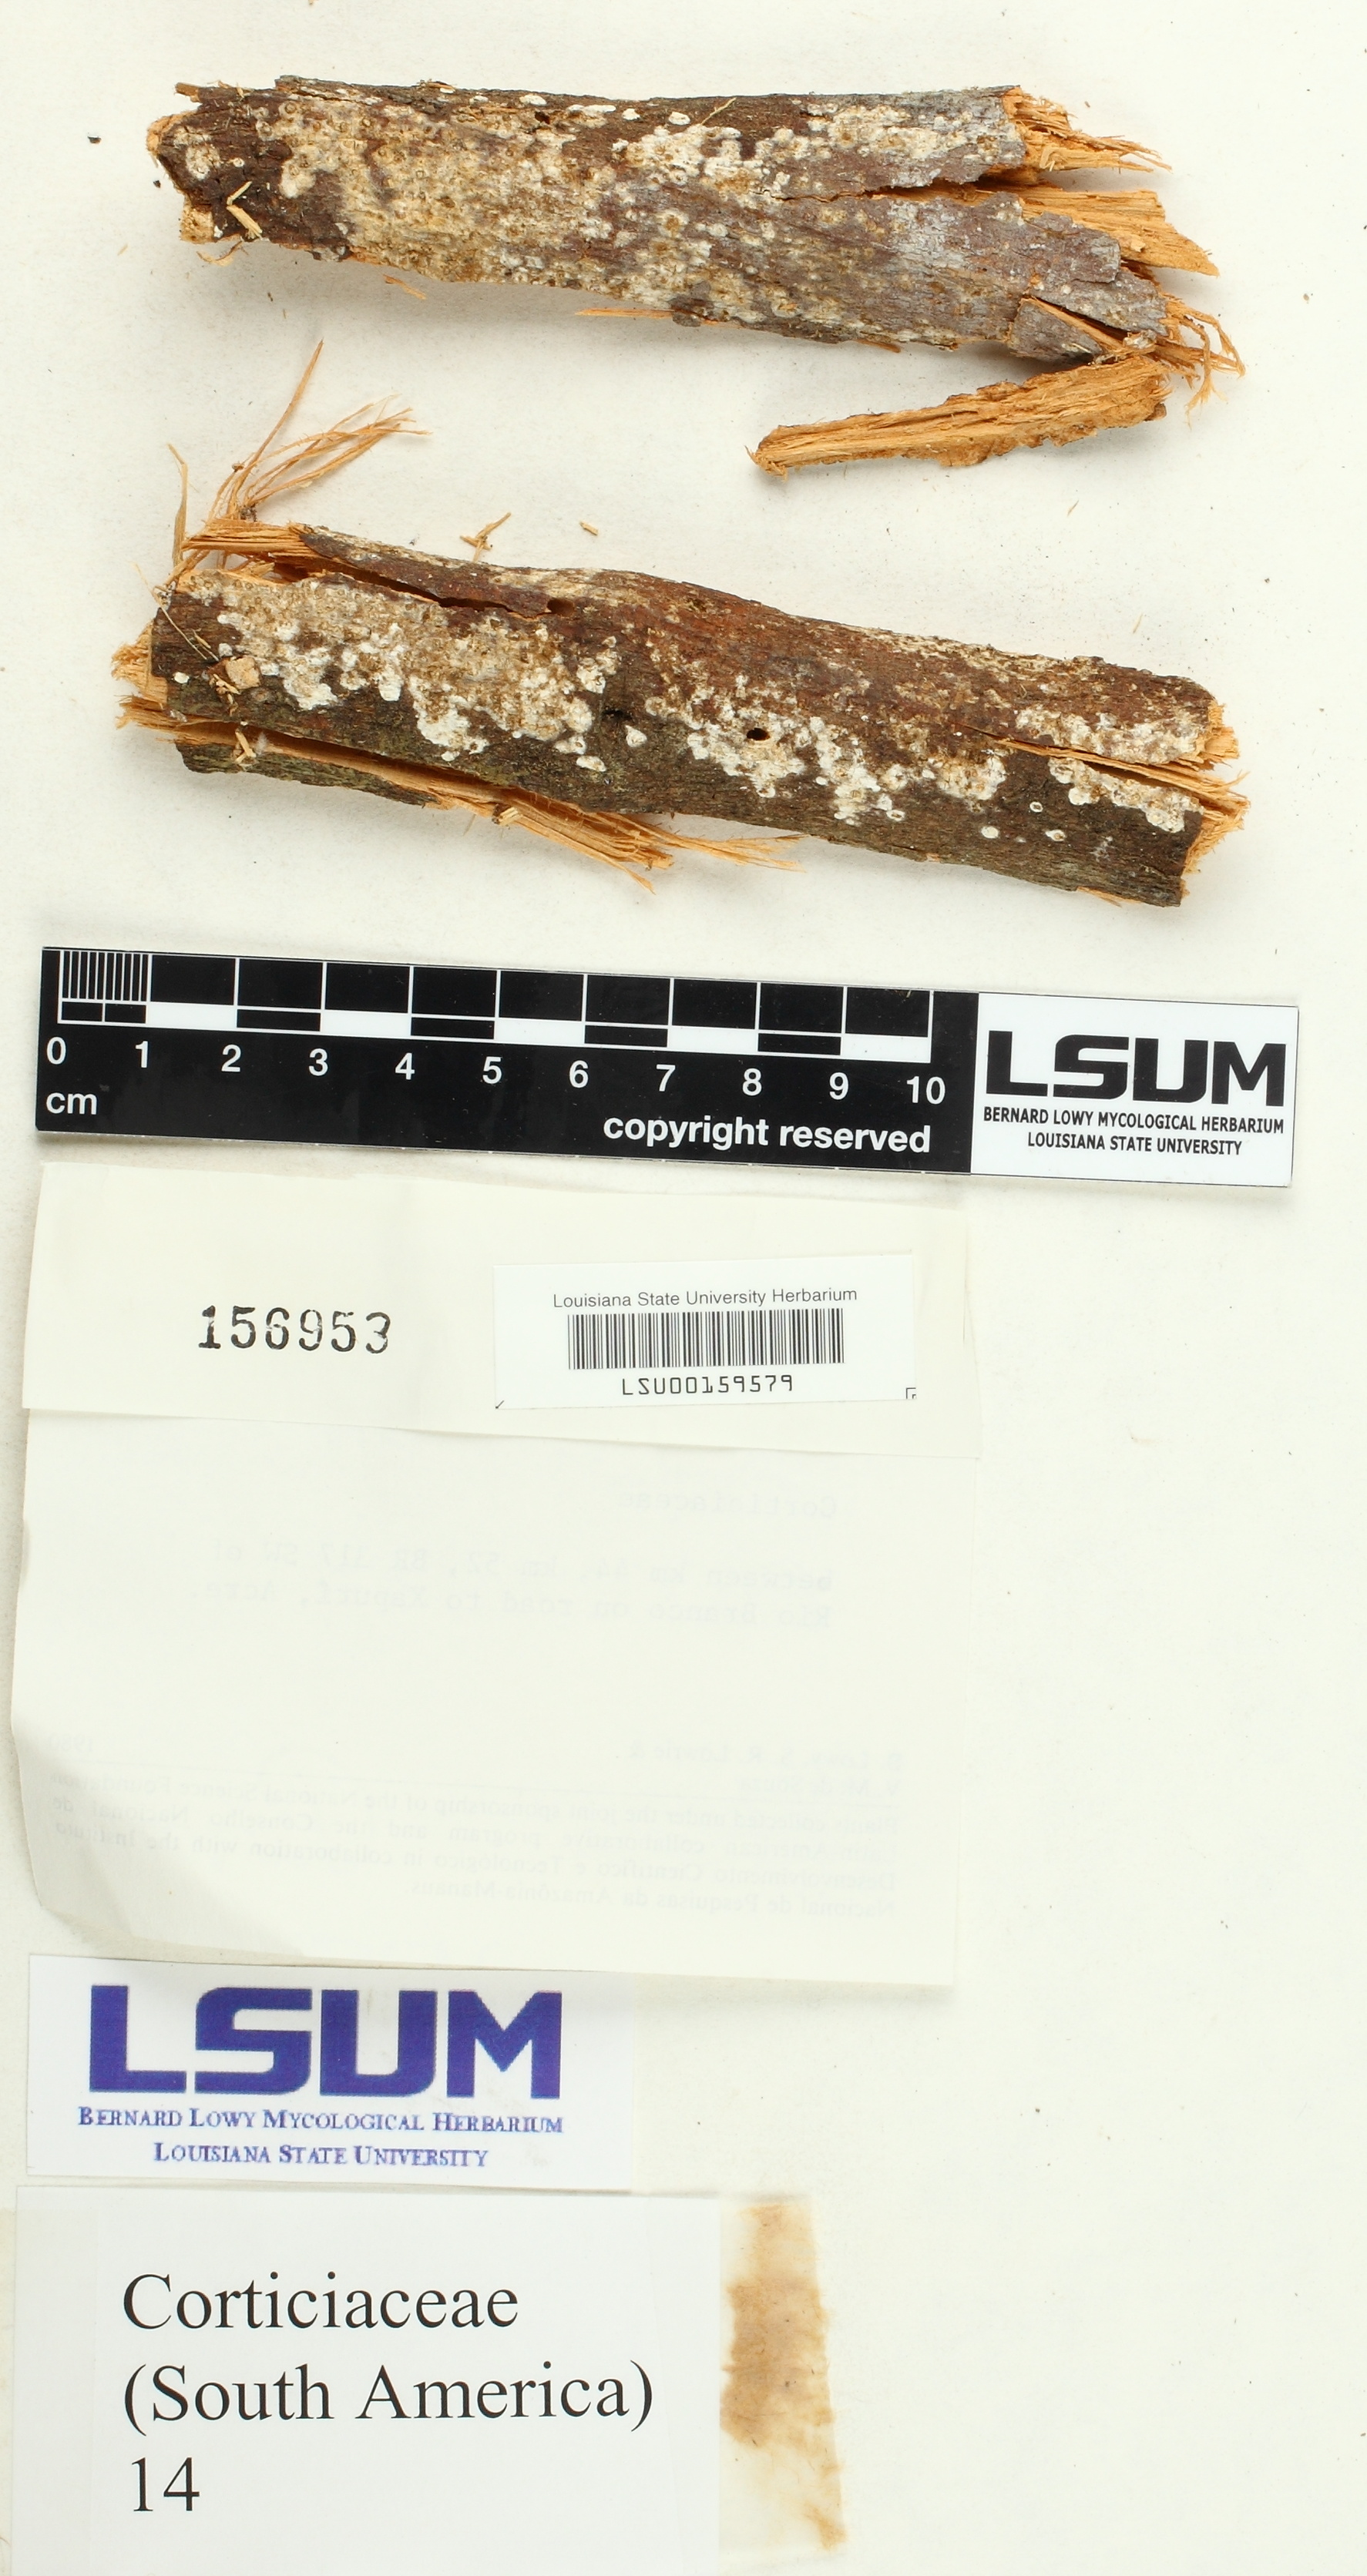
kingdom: Fungi
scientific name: Fungi
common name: Fungi
